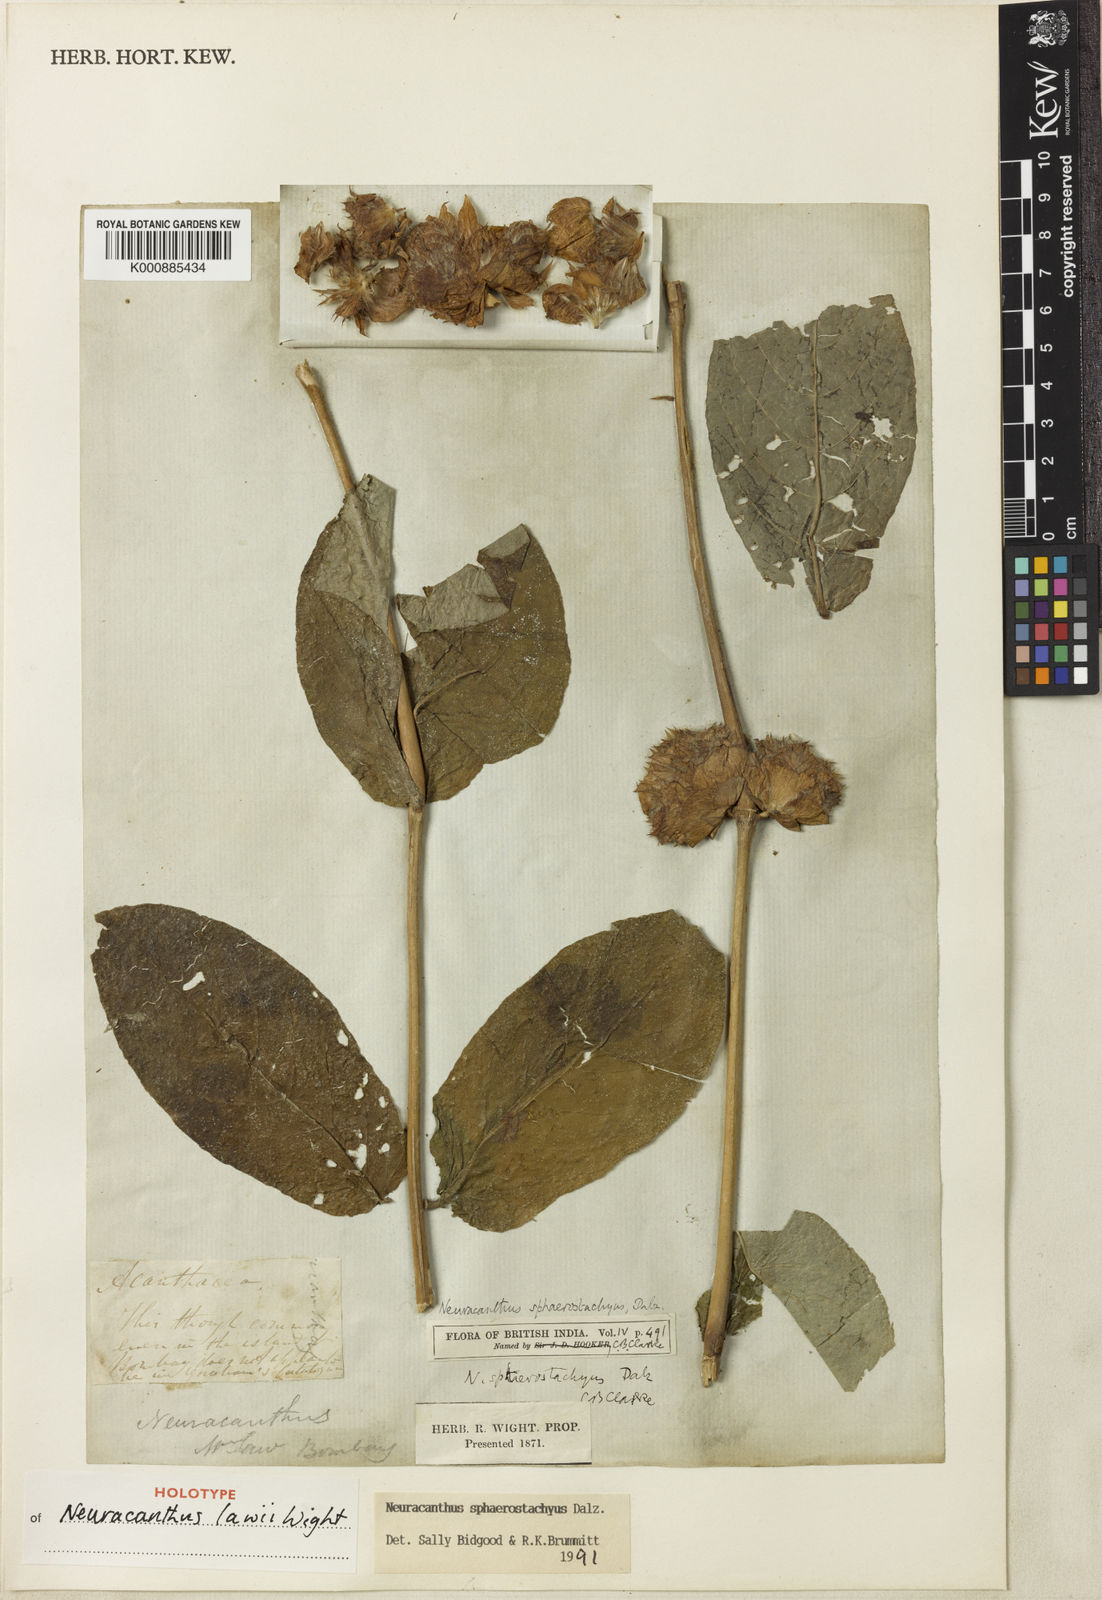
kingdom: Plantae
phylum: Tracheophyta
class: Magnoliopsida
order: Lamiales
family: Acanthaceae
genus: Neuracanthus
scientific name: Neuracanthus
